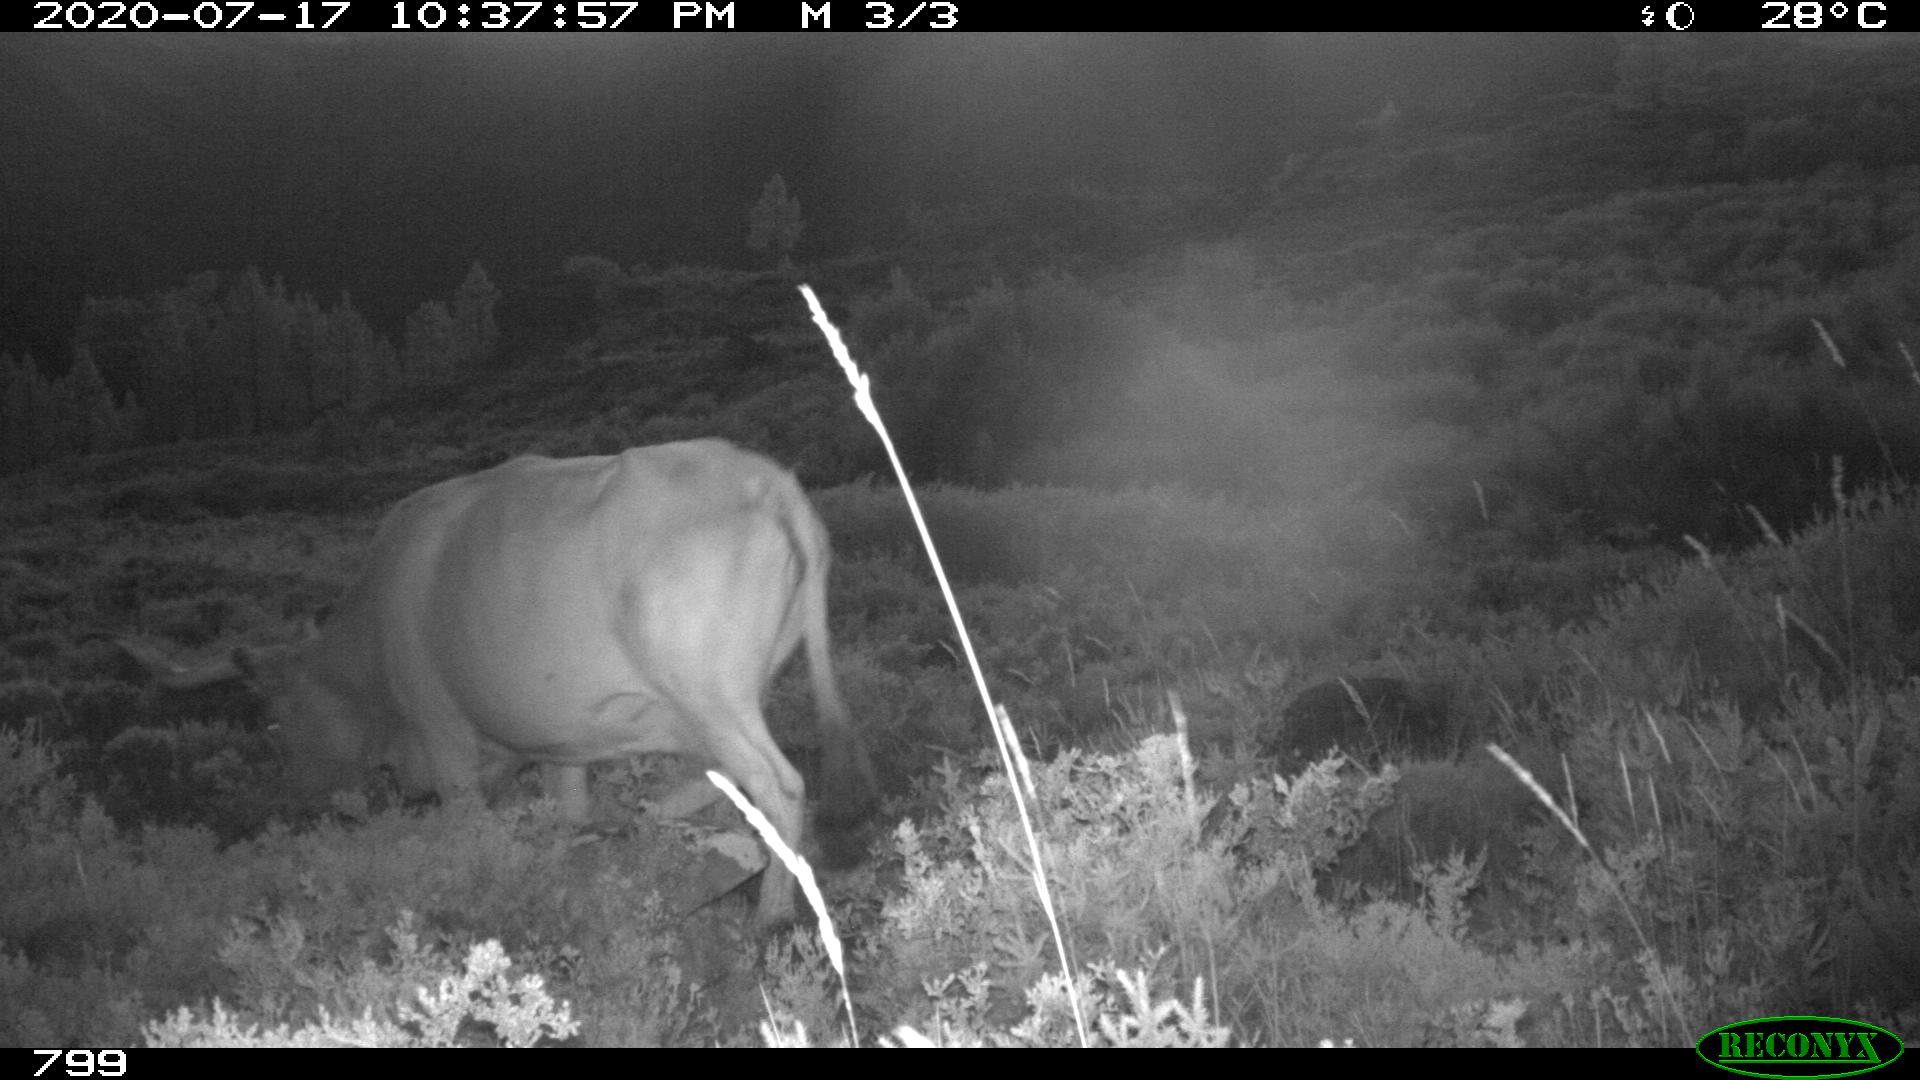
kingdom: Animalia
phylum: Chordata
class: Mammalia
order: Artiodactyla
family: Bovidae
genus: Bos
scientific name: Bos taurus
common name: Domesticated cattle
